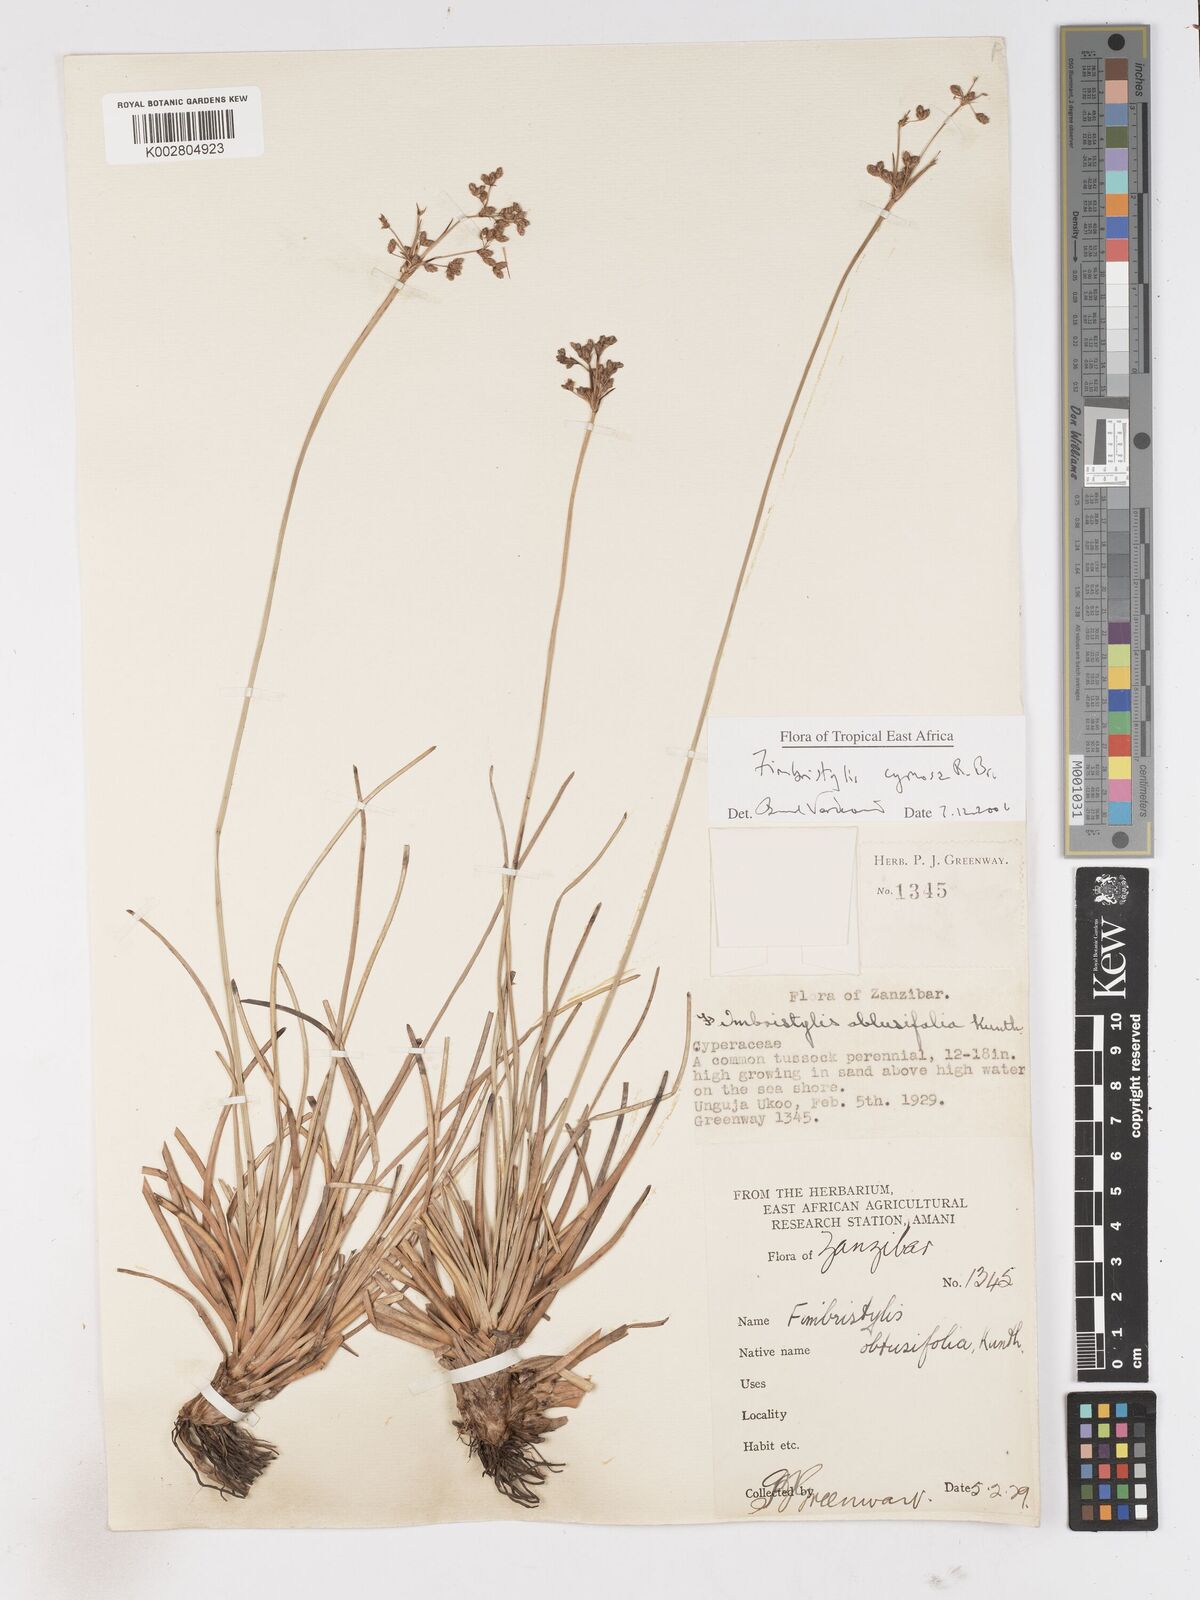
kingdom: Plantae
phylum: Tracheophyta
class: Liliopsida
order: Poales
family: Cyperaceae
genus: Fimbristylis
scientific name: Fimbristylis cymosa
